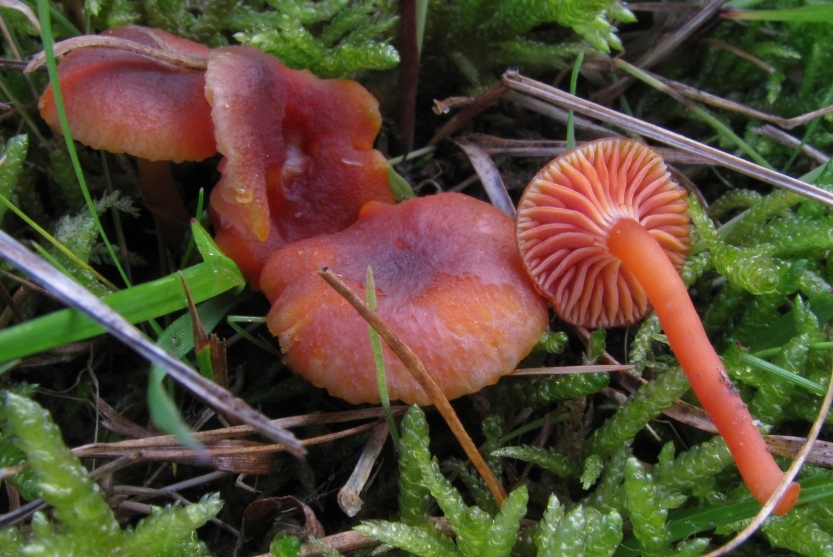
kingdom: Fungi
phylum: Basidiomycota
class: Agaricomycetes
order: Agaricales
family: Hygrophoraceae
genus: Hygrocybe
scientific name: Hygrocybe phaeococcinea
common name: sortdugget vokshat
